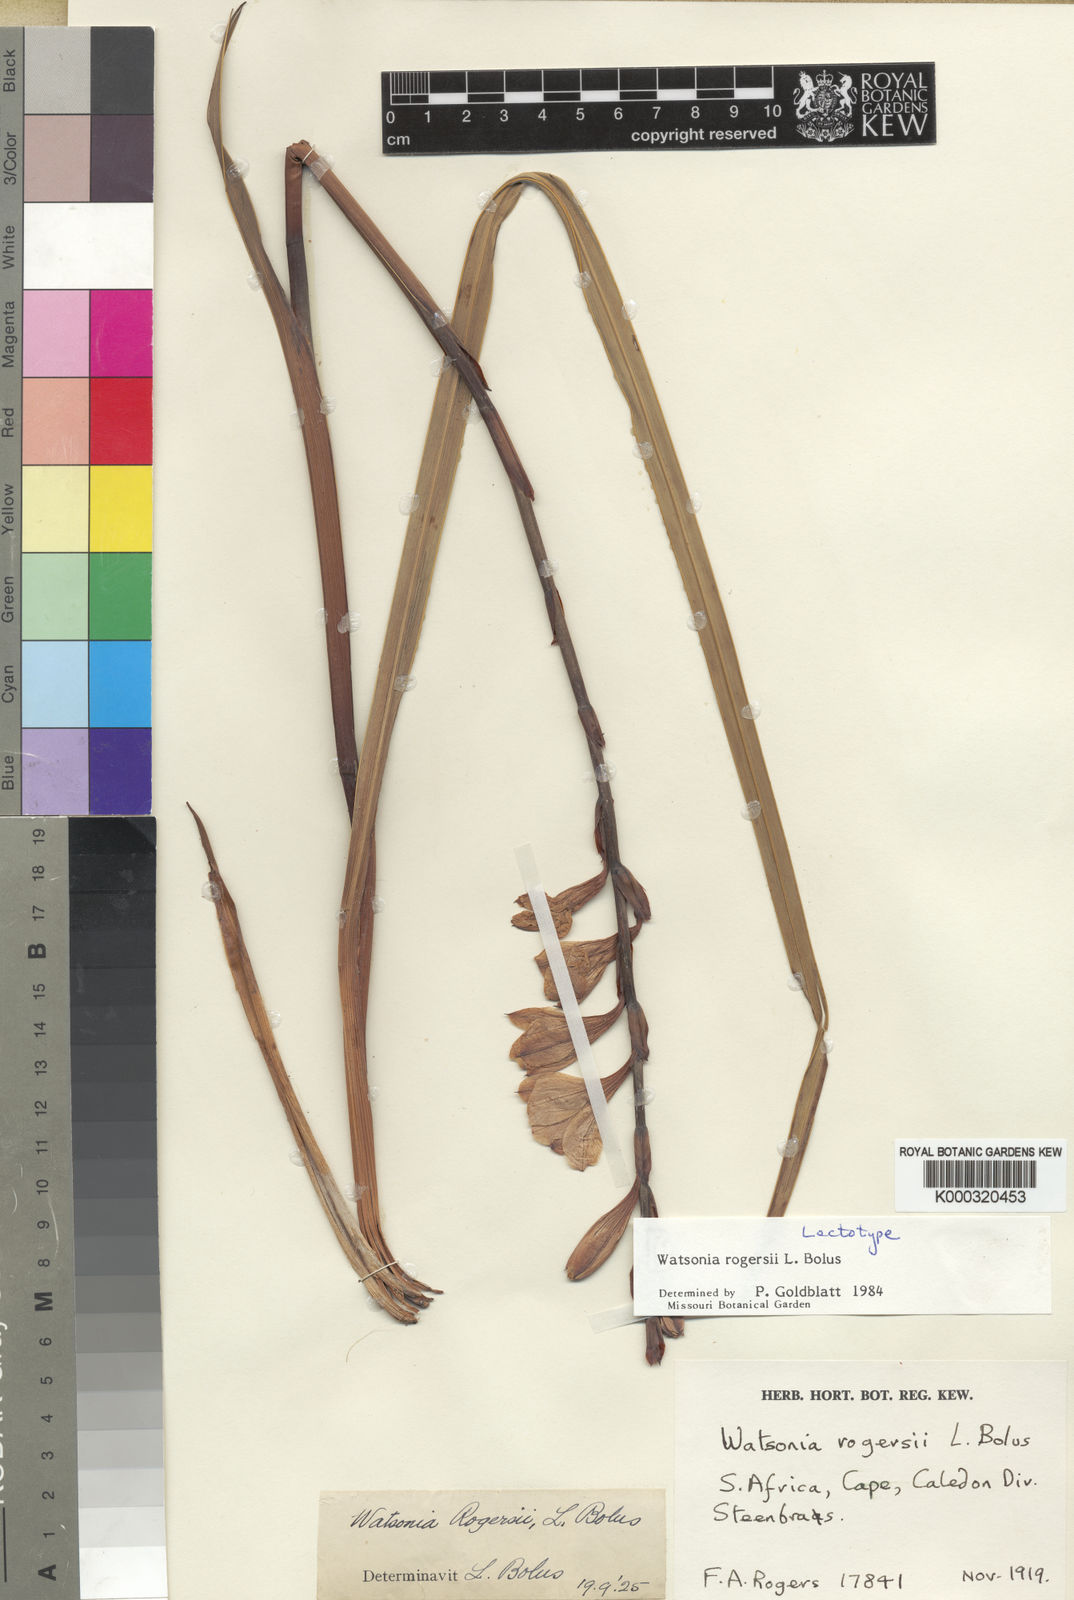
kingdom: Plantae
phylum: Tracheophyta
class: Liliopsida
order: Asparagales
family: Iridaceae
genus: Watsonia
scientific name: Watsonia rogersii
